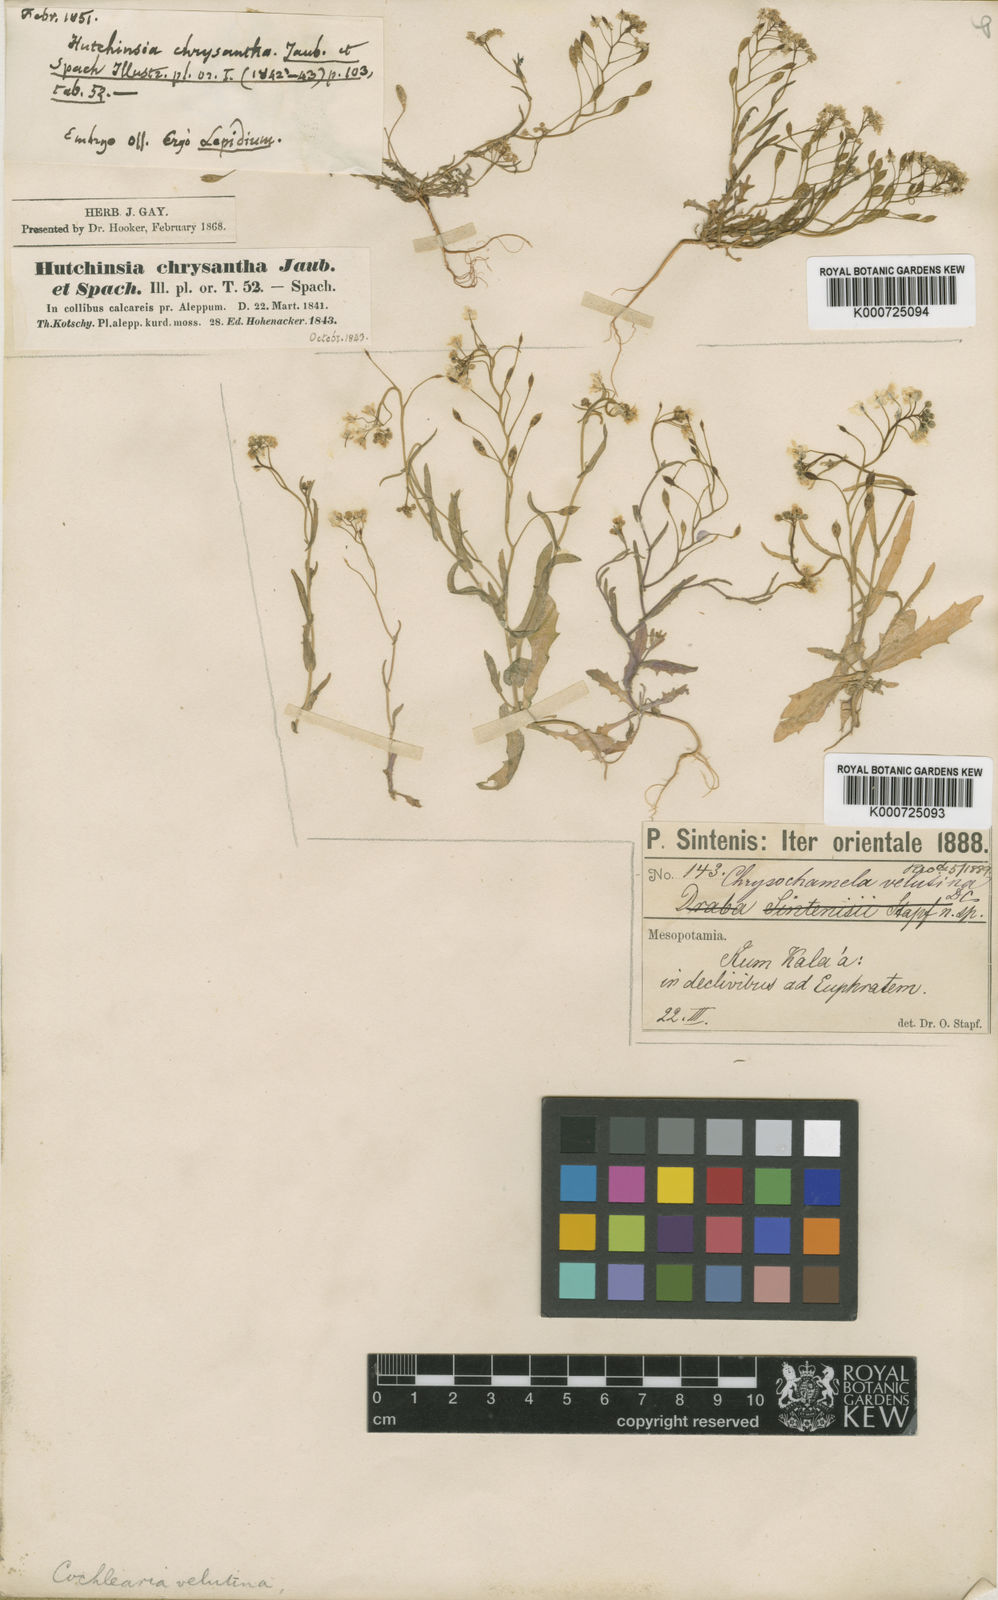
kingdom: Plantae
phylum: Tracheophyta
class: Magnoliopsida
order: Brassicales
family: Brassicaceae
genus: Chrysochamela
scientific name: Chrysochamela velutina
